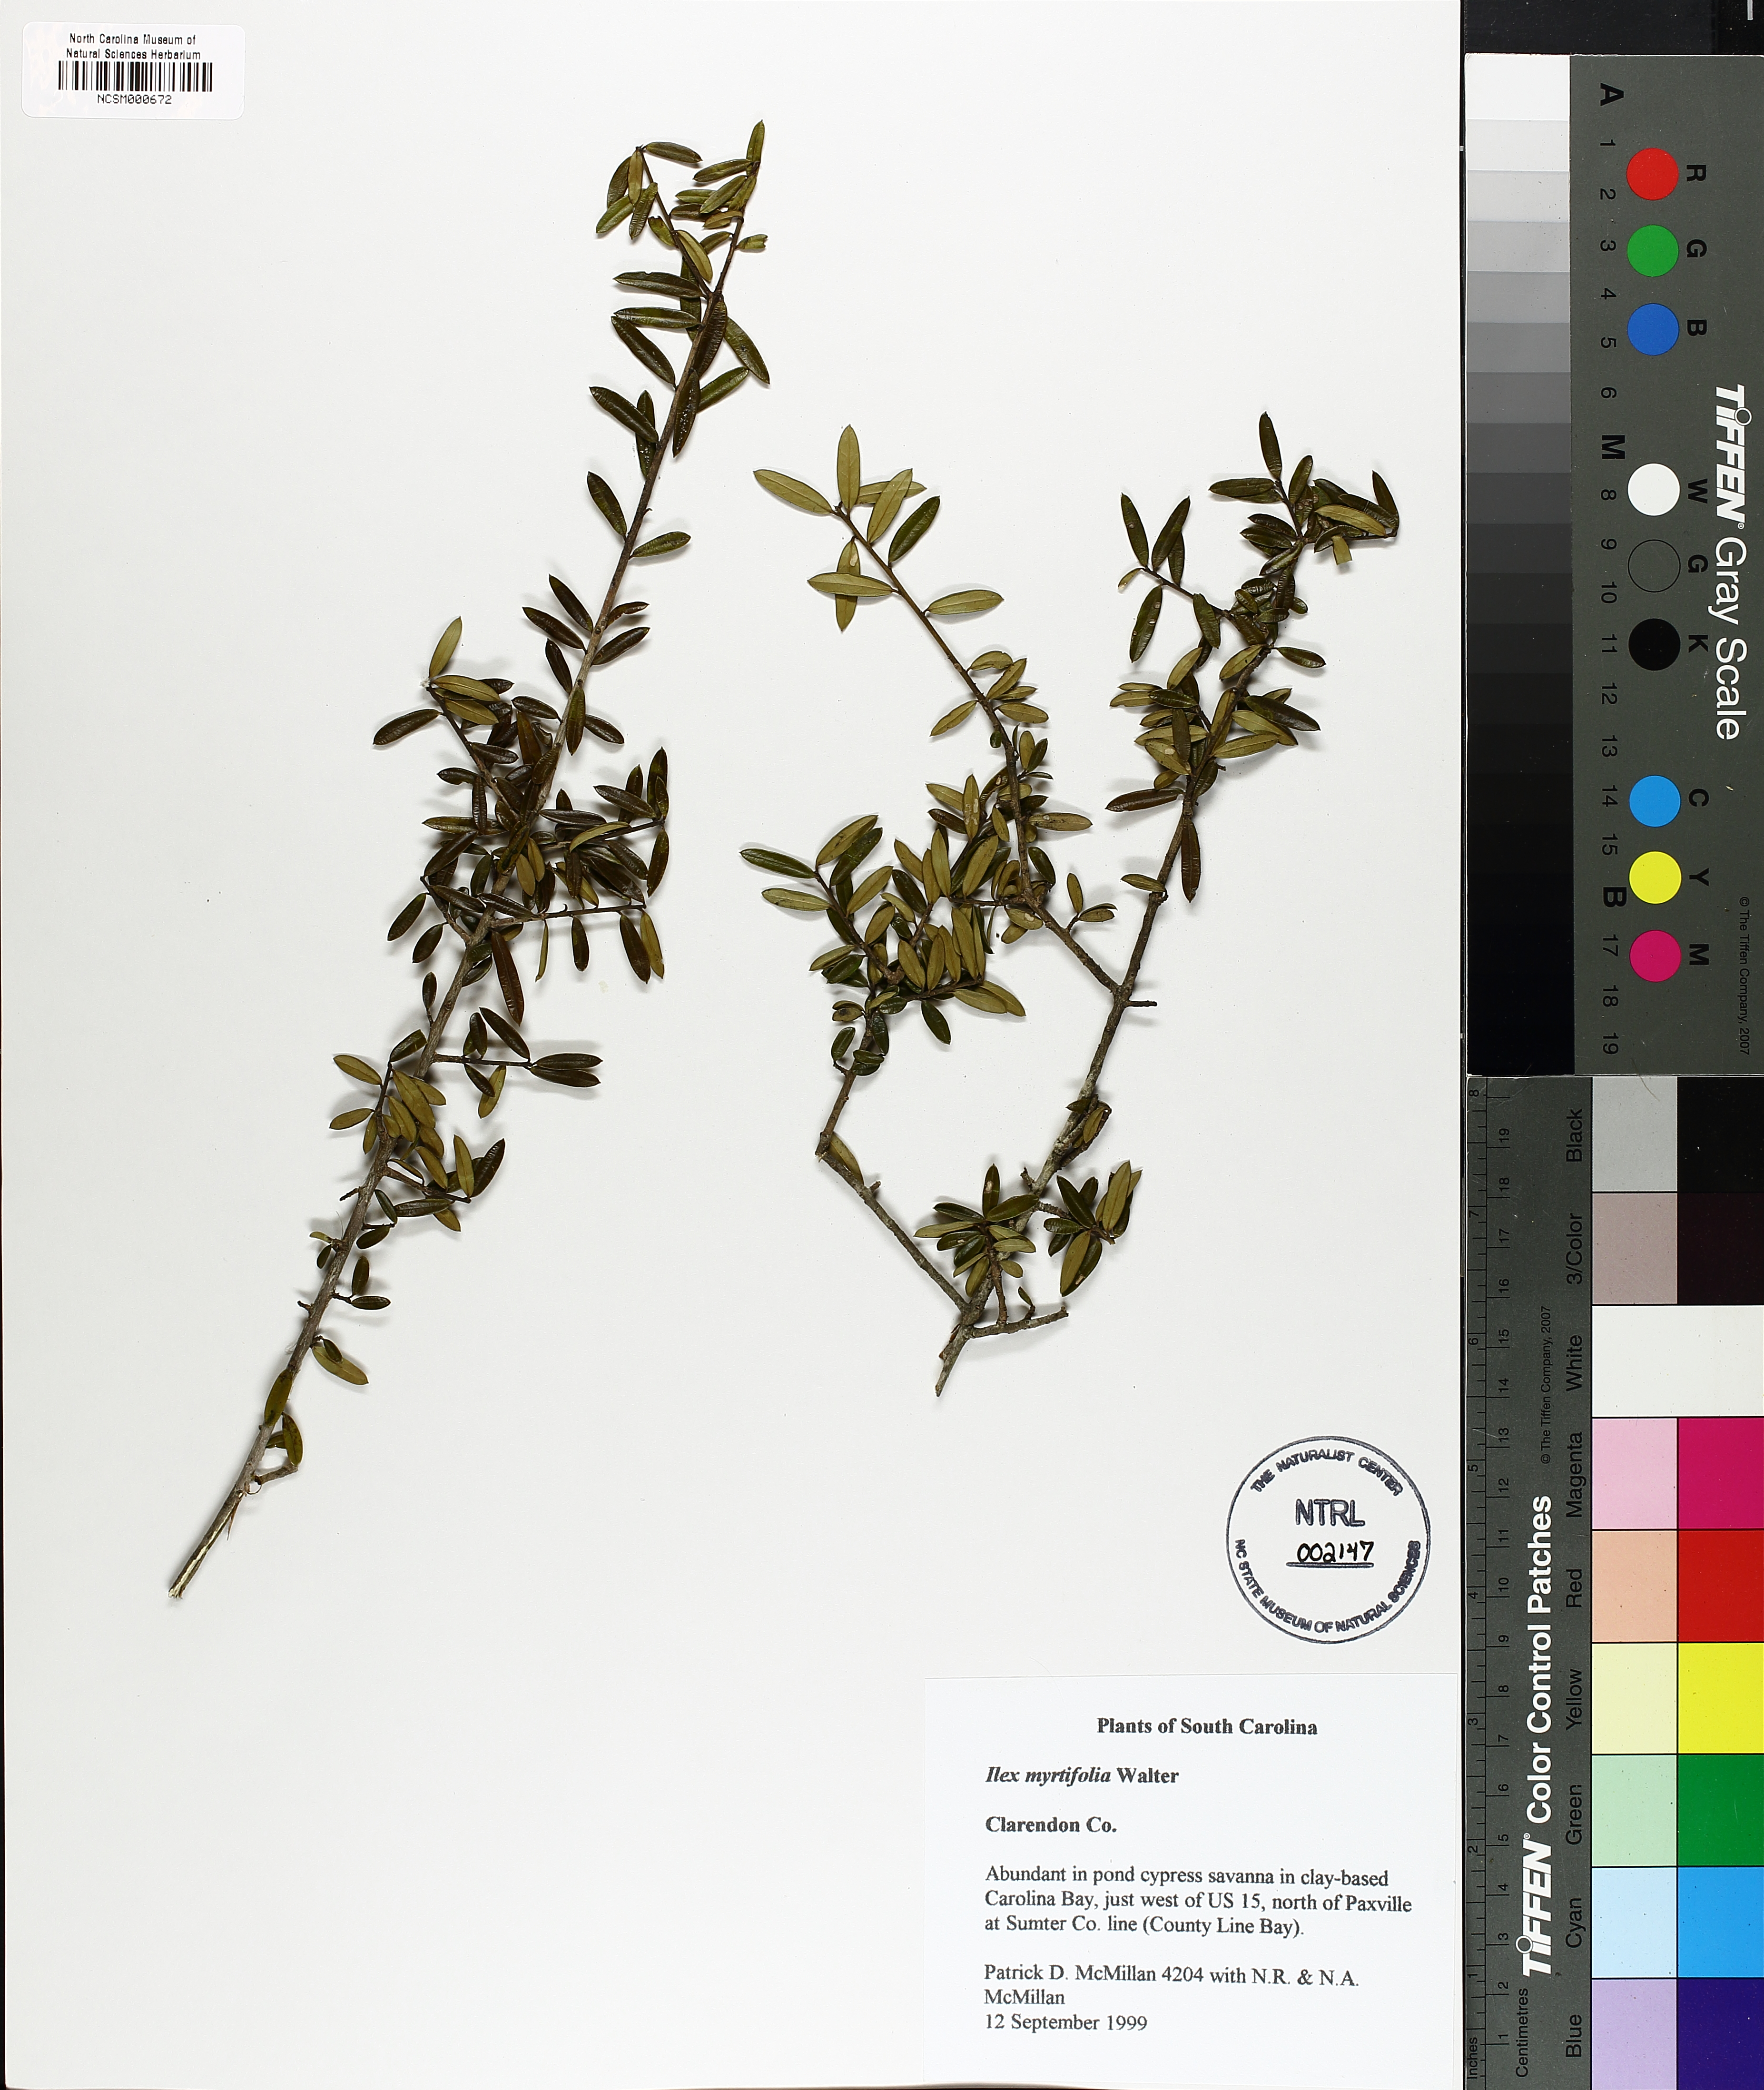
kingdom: Plantae
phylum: Tracheophyta
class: Magnoliopsida
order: Aquifoliales
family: Aquifoliaceae
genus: Ilex
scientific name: Ilex myrtifolia
